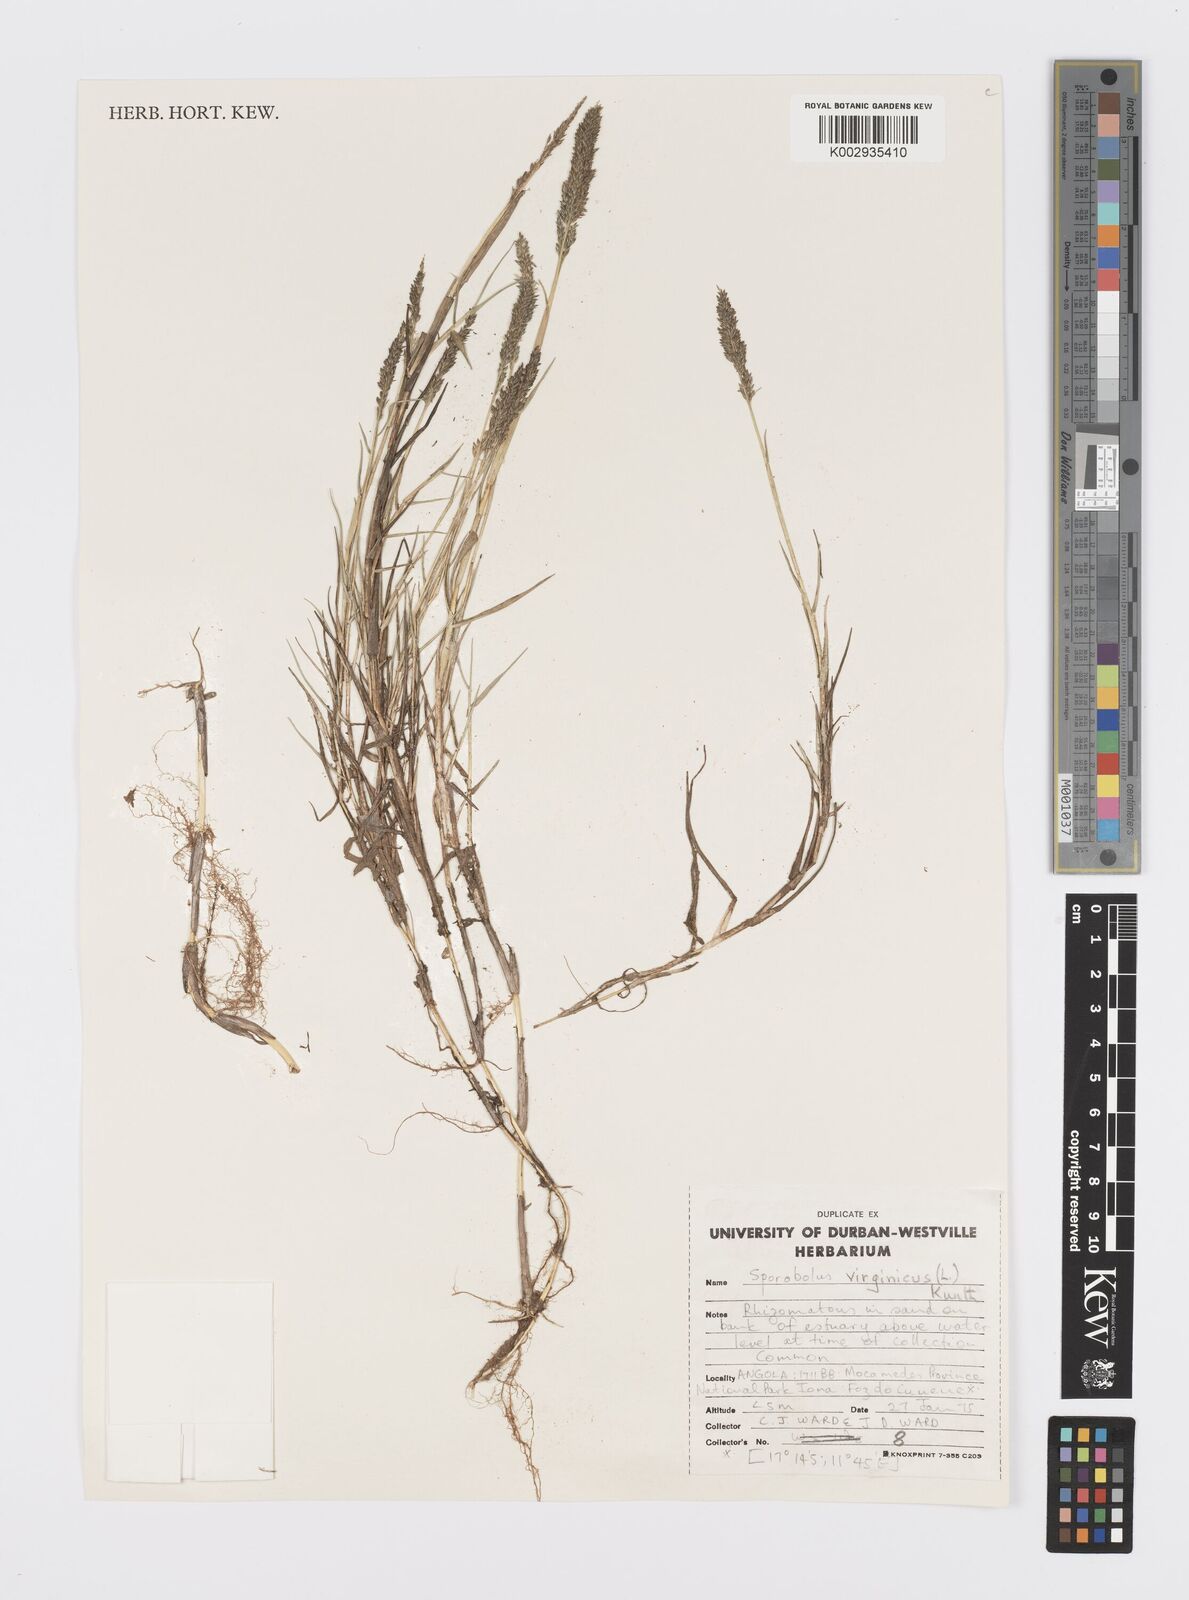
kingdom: Plantae
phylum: Tracheophyta
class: Liliopsida
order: Poales
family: Poaceae
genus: Sporobolus
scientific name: Sporobolus virginicus
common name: Beach dropseed
